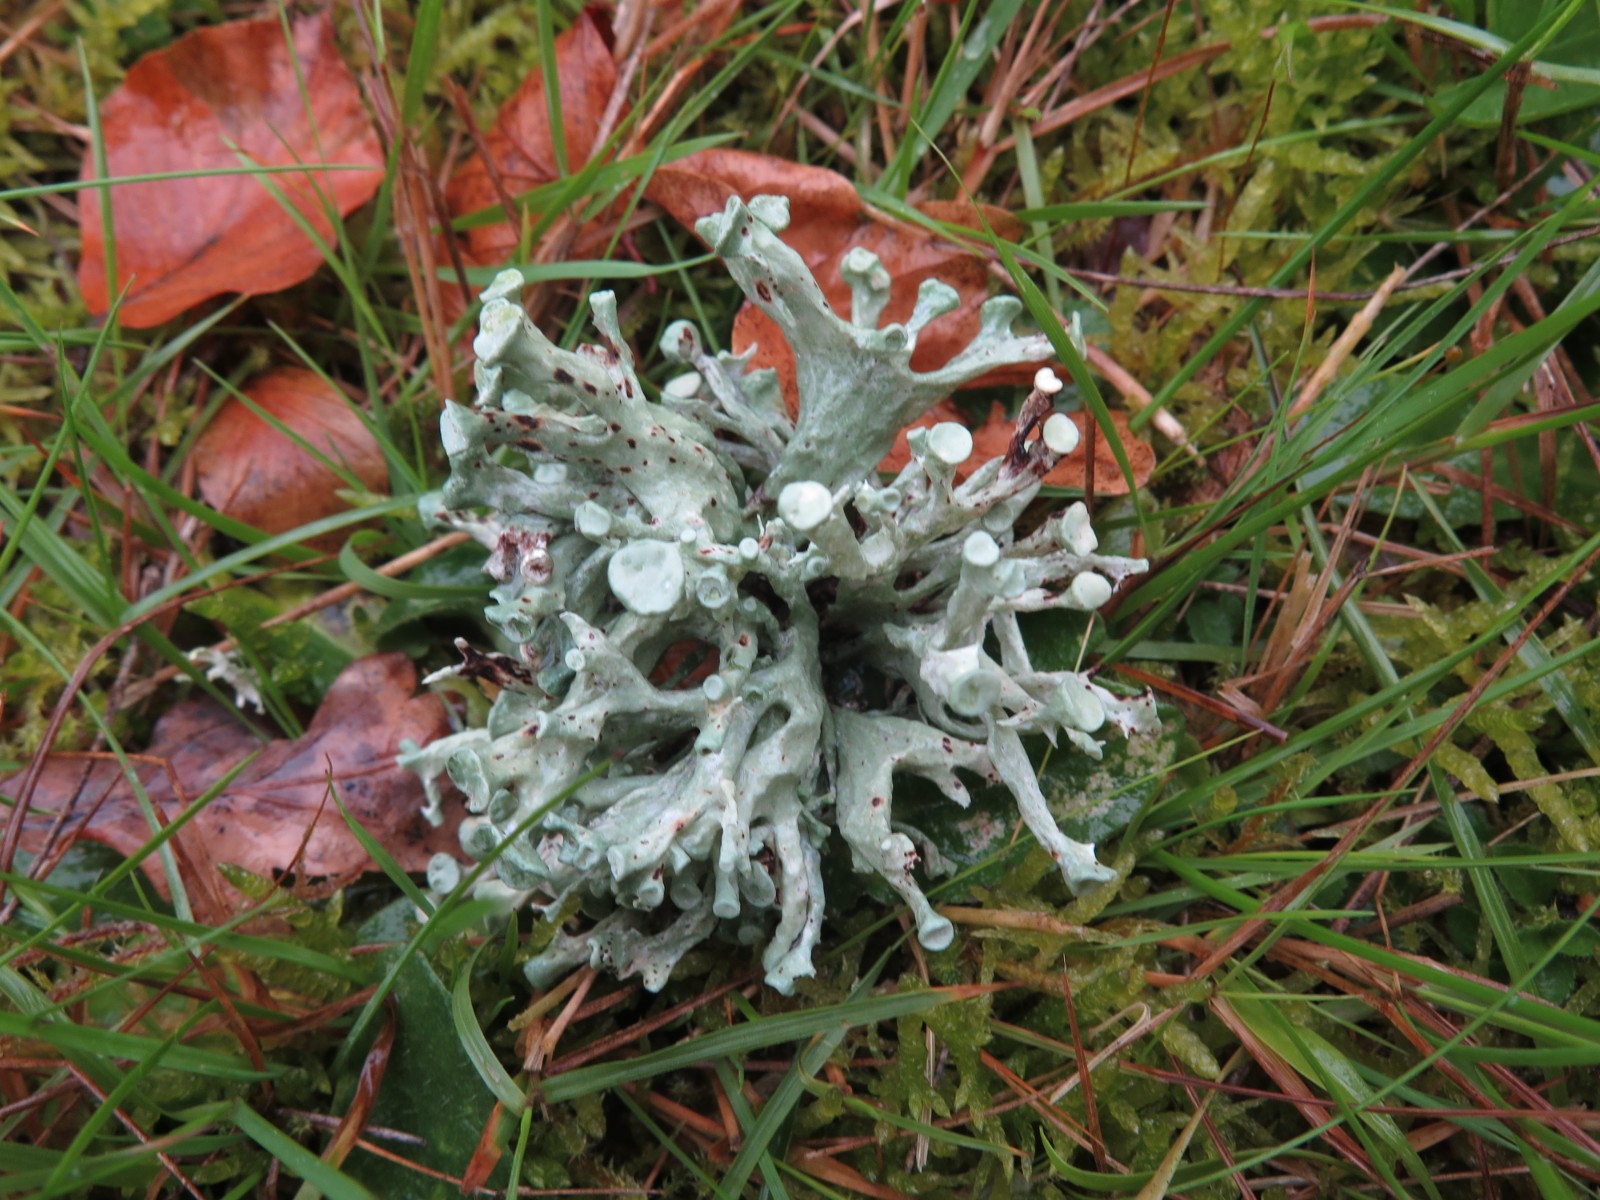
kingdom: Fungi
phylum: Ascomycota
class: Lecanoromycetes
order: Lecanorales
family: Ramalinaceae
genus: Ramalina
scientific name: Ramalina fastigiata
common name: tue-grenlav
